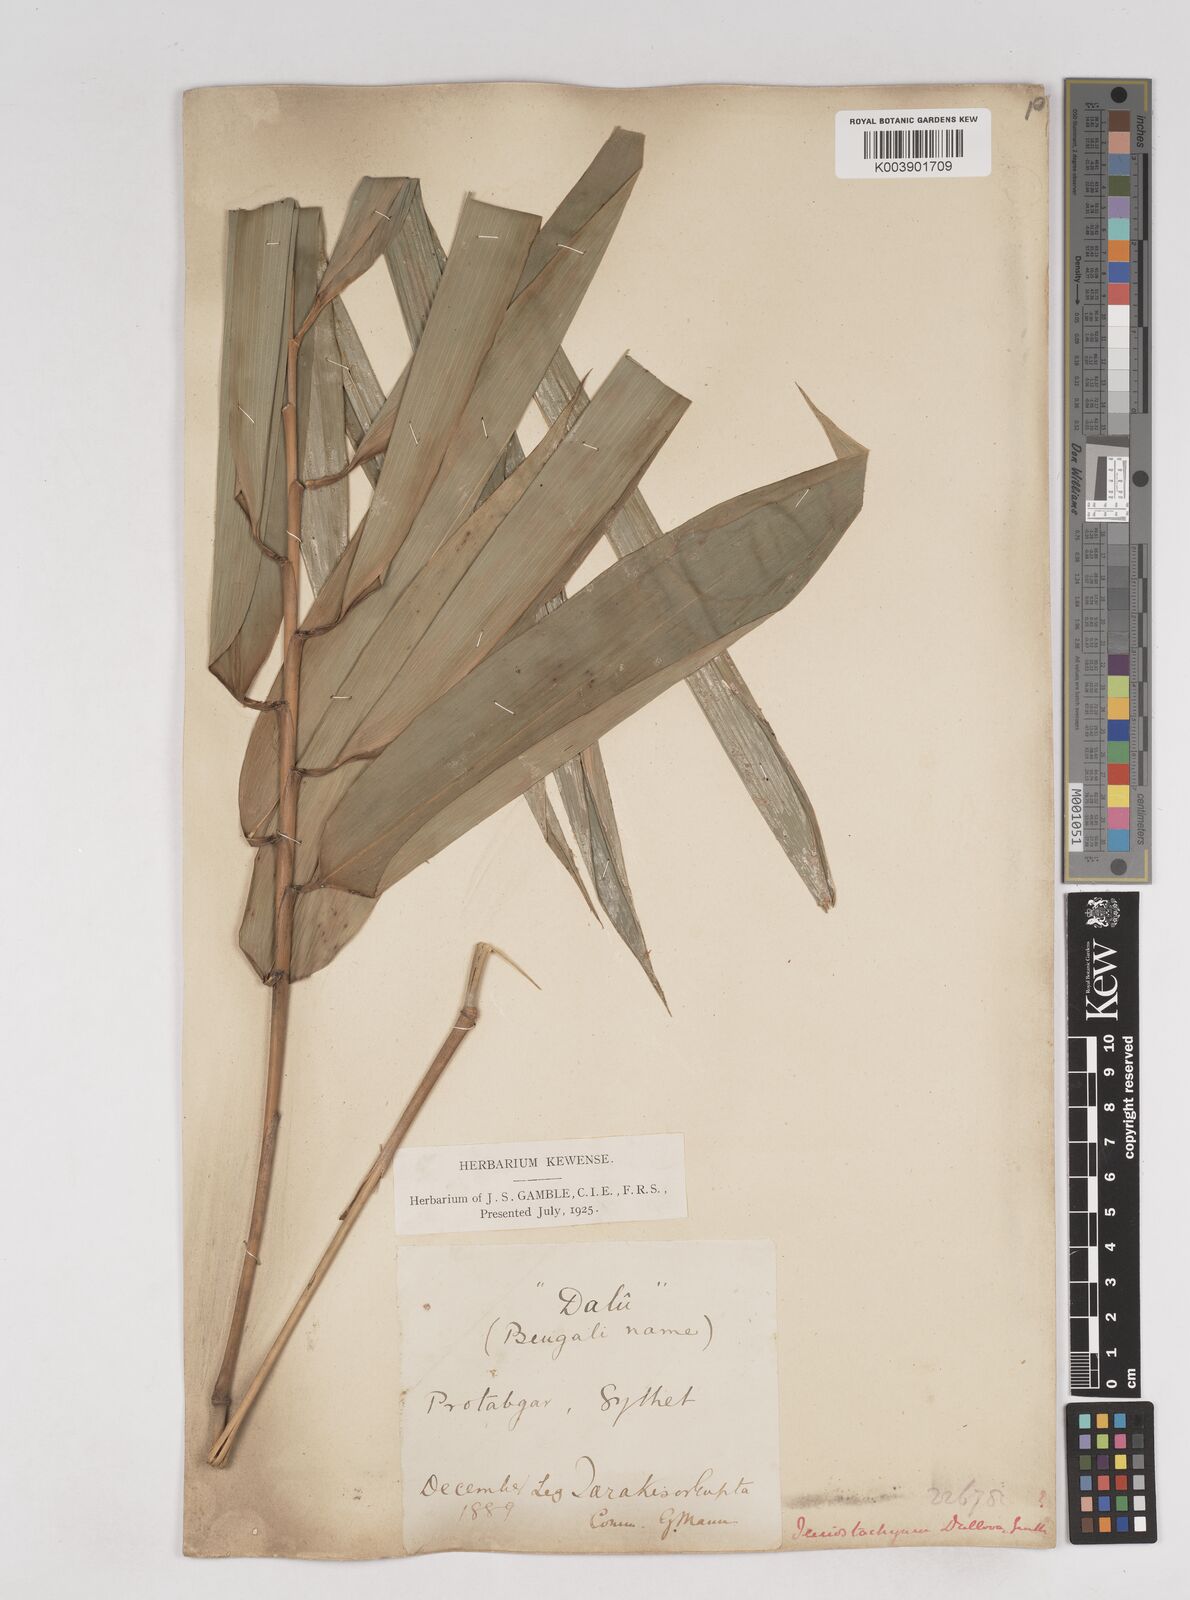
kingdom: Plantae
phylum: Tracheophyta
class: Liliopsida
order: Poales
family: Poaceae
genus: Schizostachyum
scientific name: Schizostachyum dullooa
